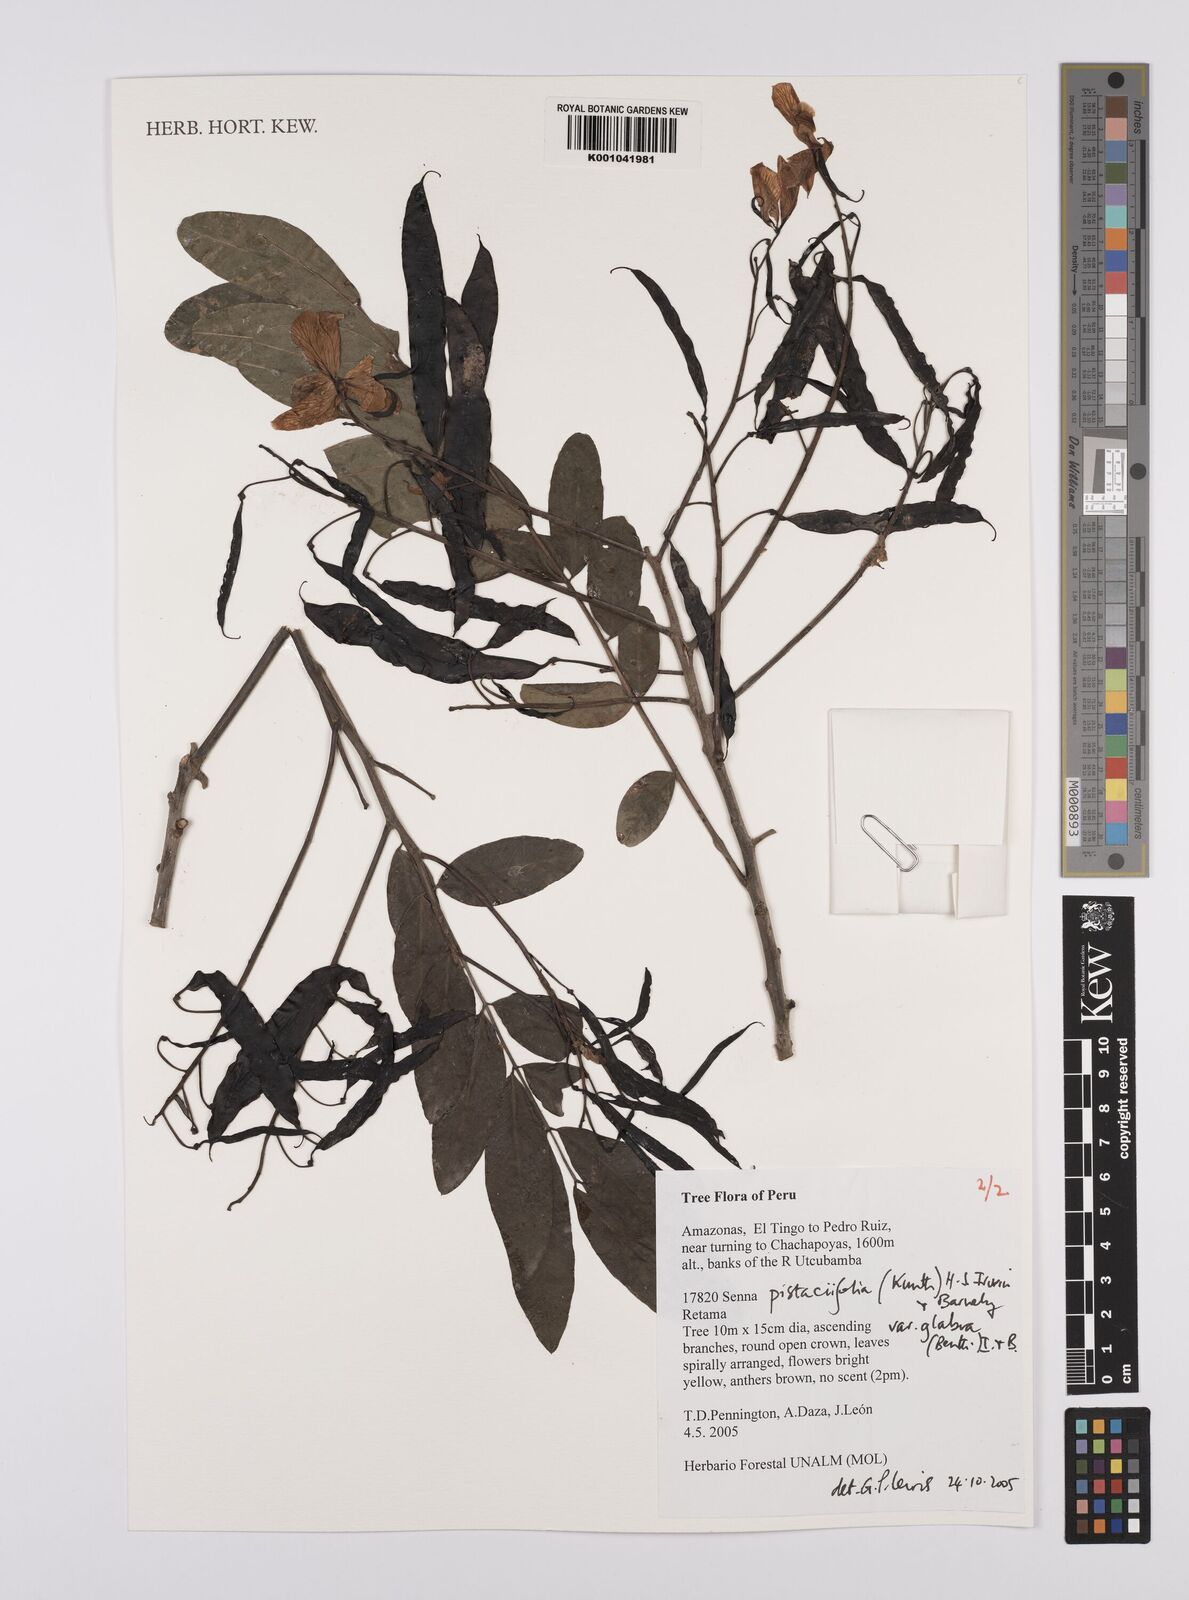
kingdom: Plantae
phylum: Tracheophyta
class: Magnoliopsida
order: Fabales
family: Fabaceae
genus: Senna
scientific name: Senna pistaciifolia
